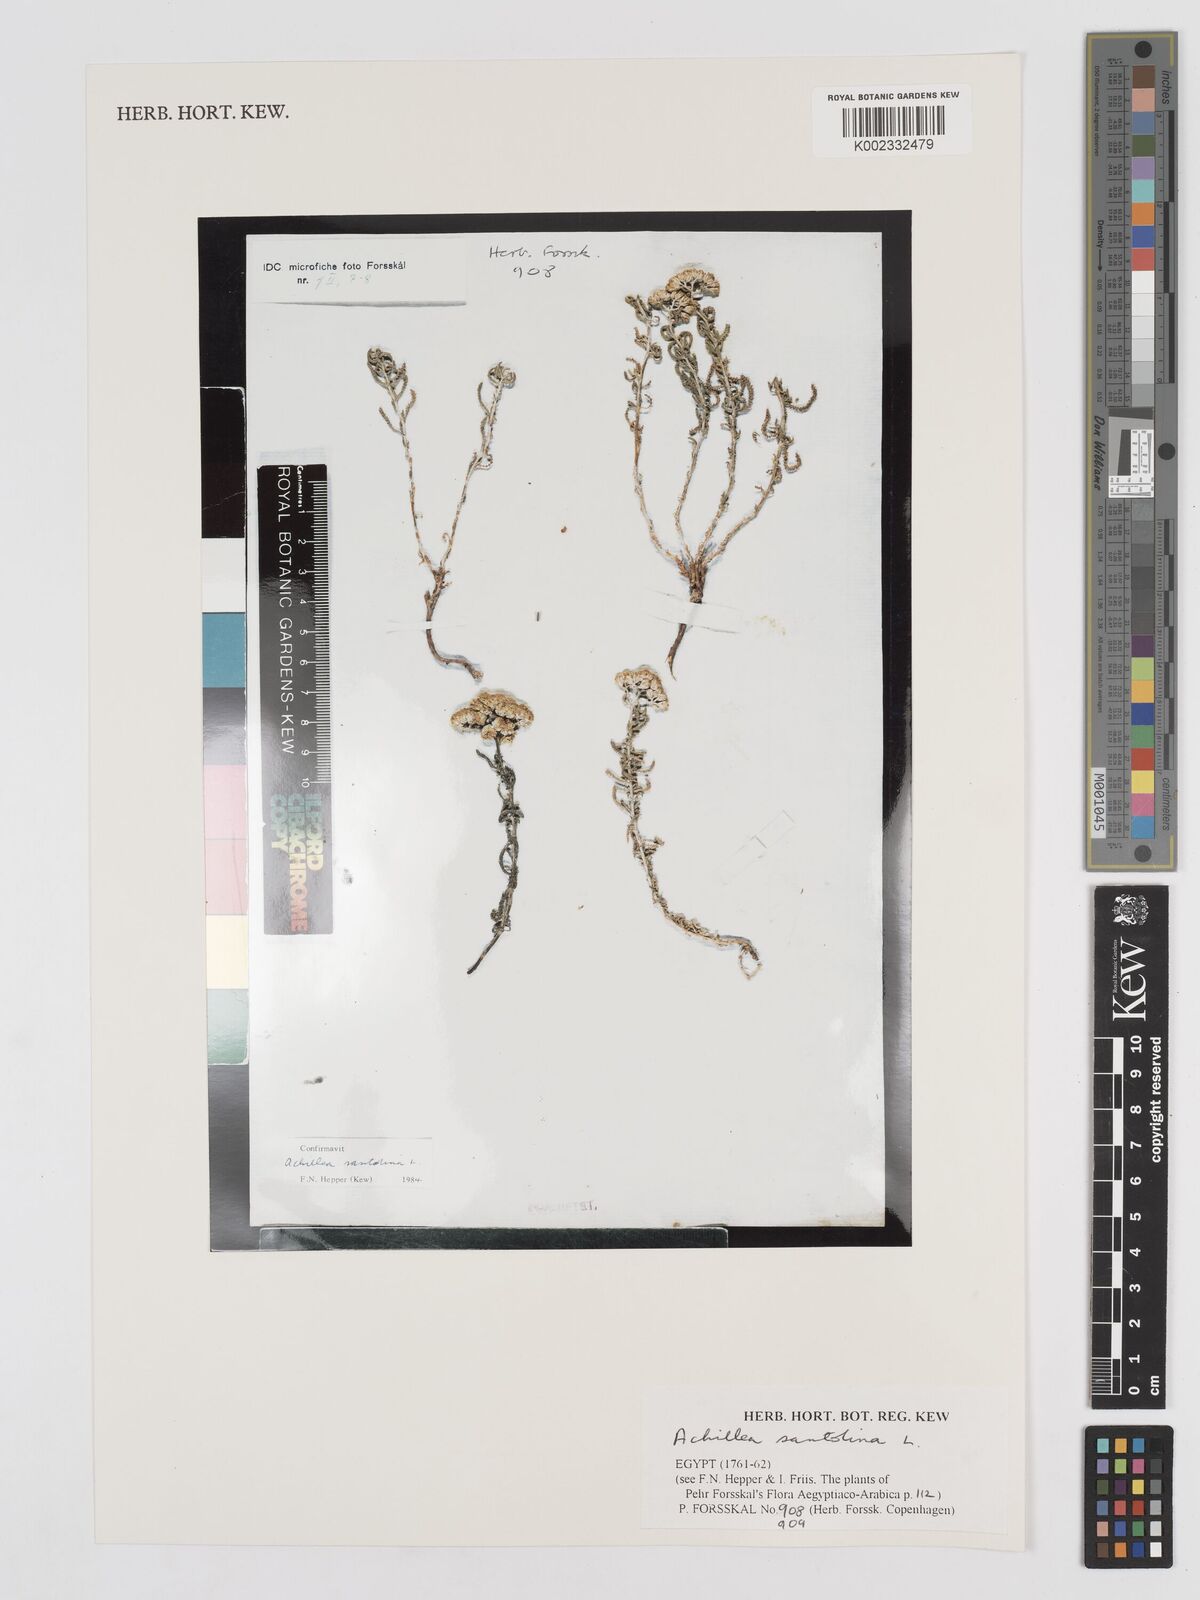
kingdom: Plantae
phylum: Tracheophyta
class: Magnoliopsida
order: Asterales
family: Asteraceae
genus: Achillea
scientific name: Achillea tenuifolia
